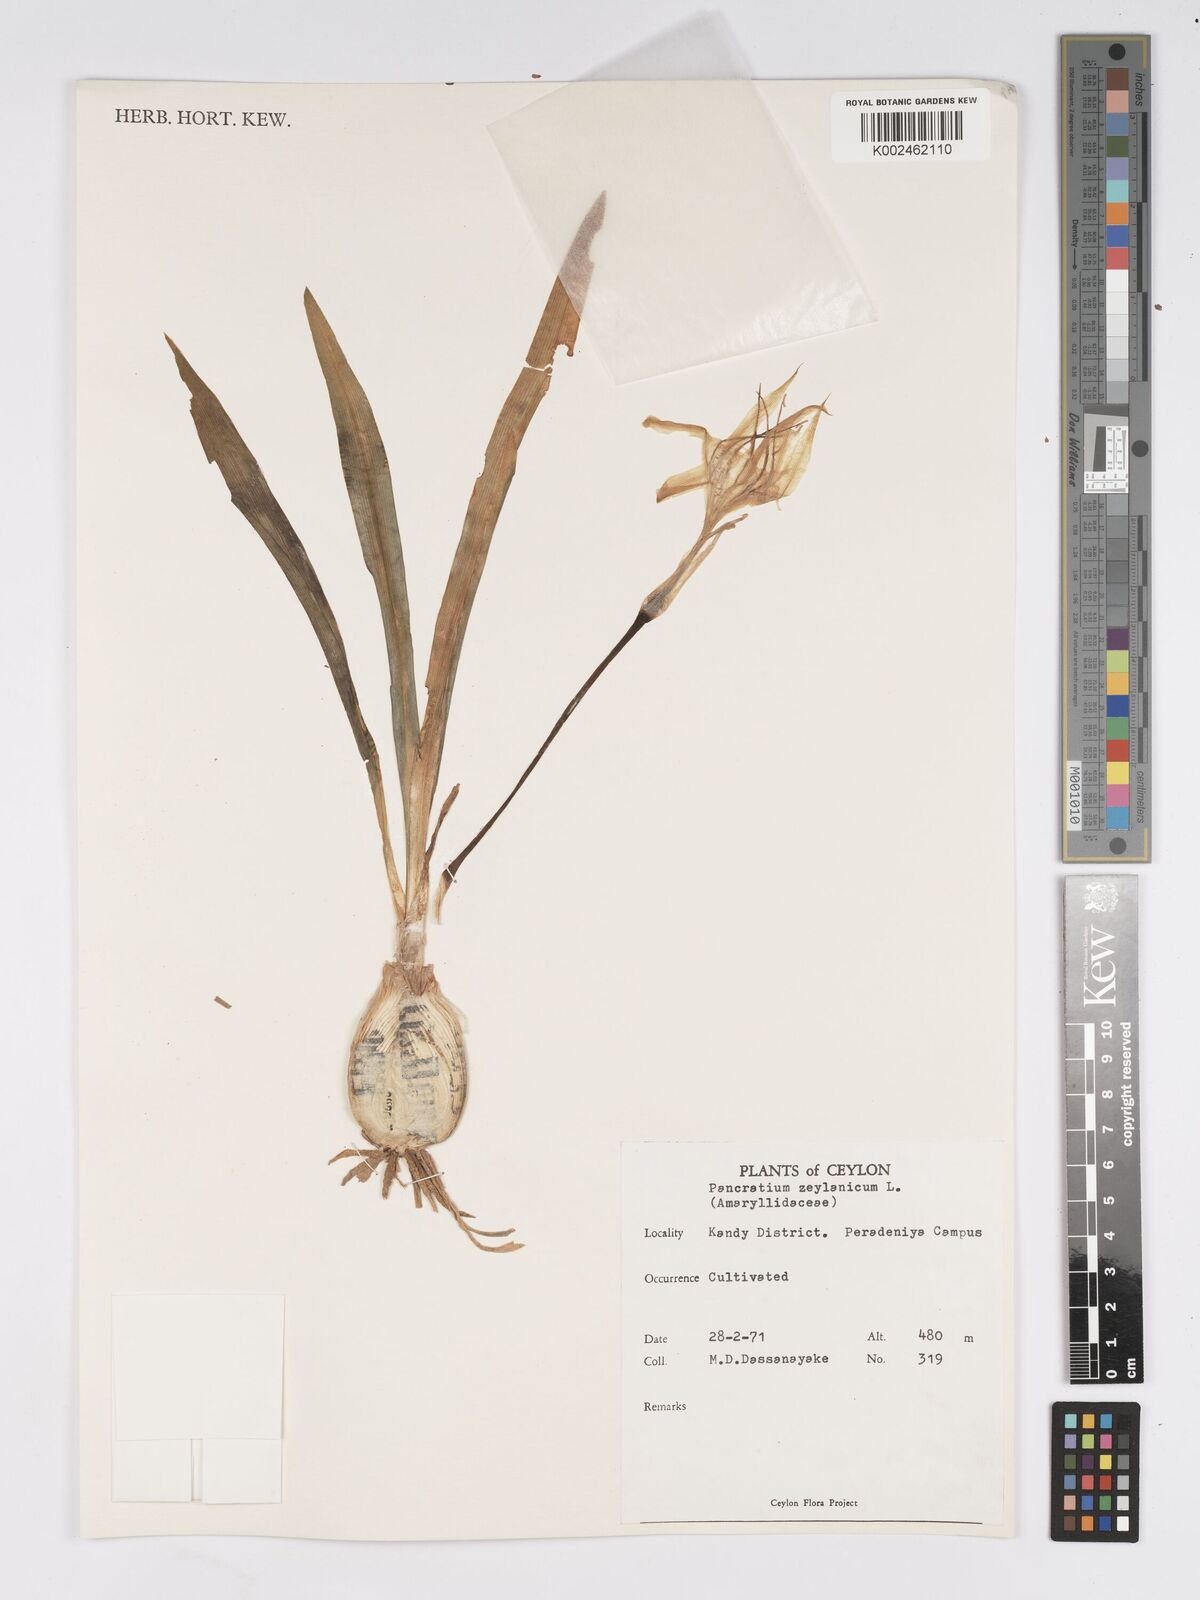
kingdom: Plantae
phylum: Tracheophyta
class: Liliopsida
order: Asparagales
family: Amaryllidaceae
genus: Pancratium
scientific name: Pancratium zeylanicum
